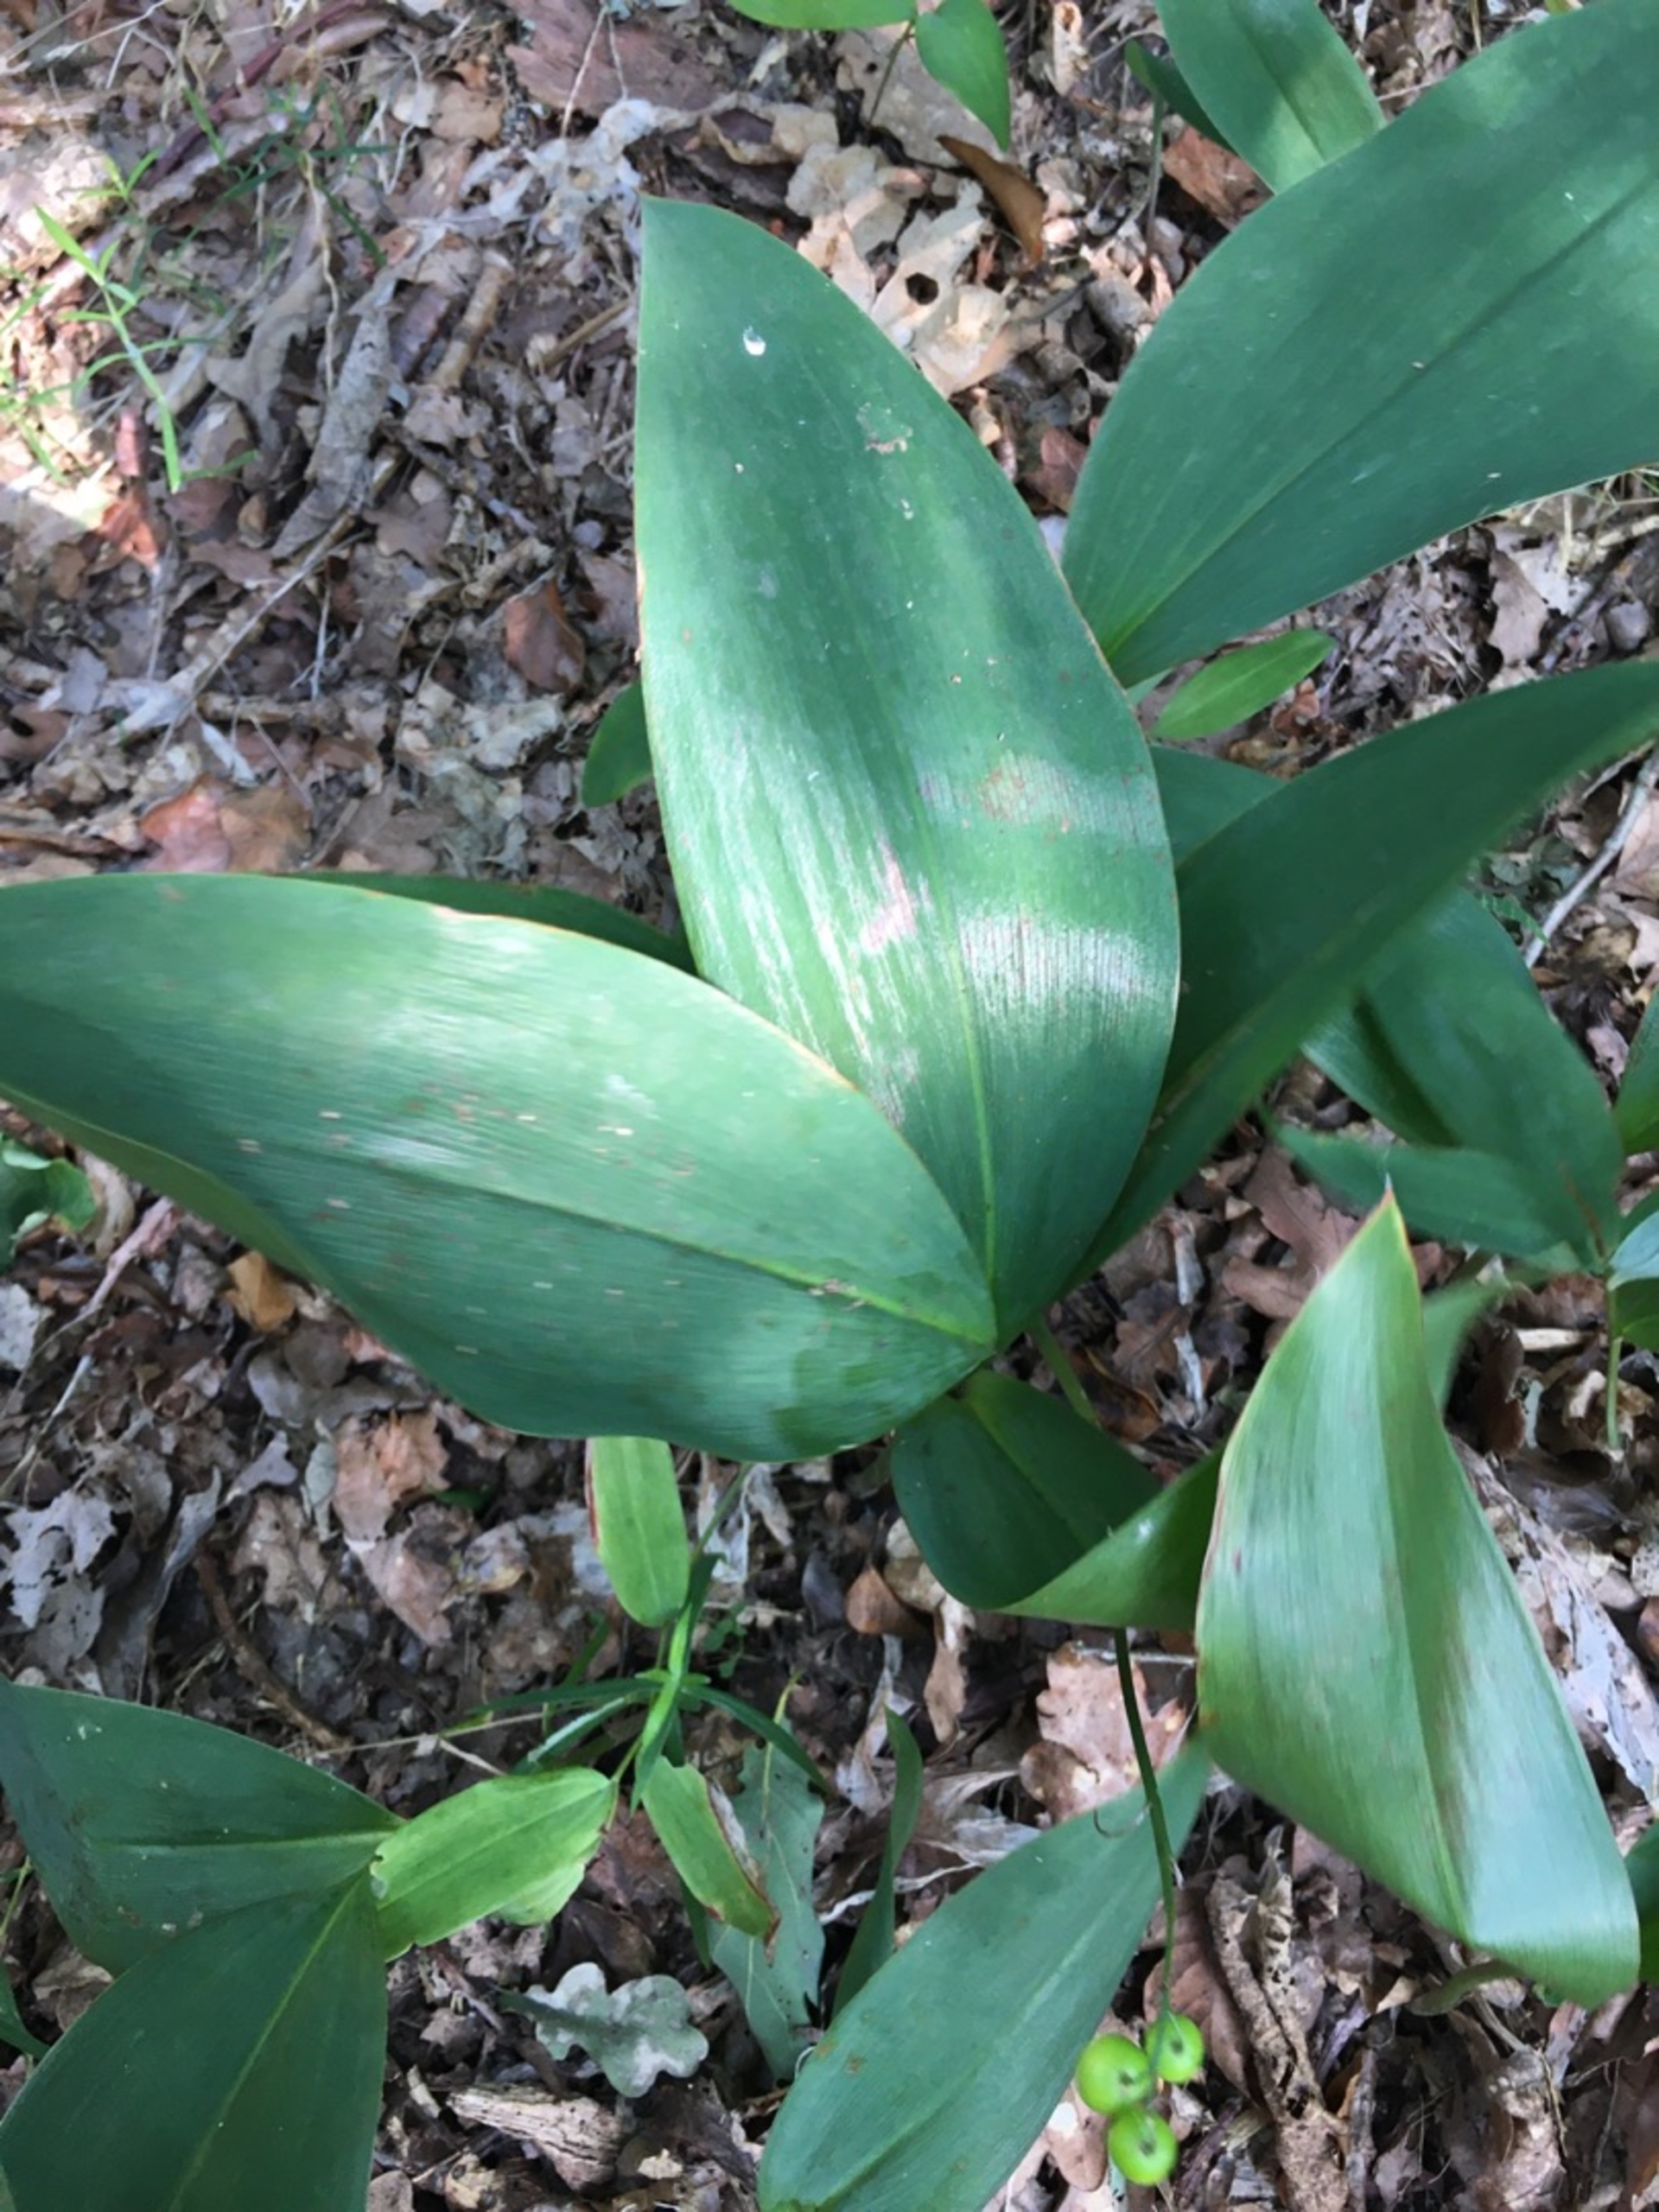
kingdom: Plantae
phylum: Tracheophyta
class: Liliopsida
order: Asparagales
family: Asparagaceae
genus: Convallaria
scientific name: Convallaria majalis
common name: Liljekonval
